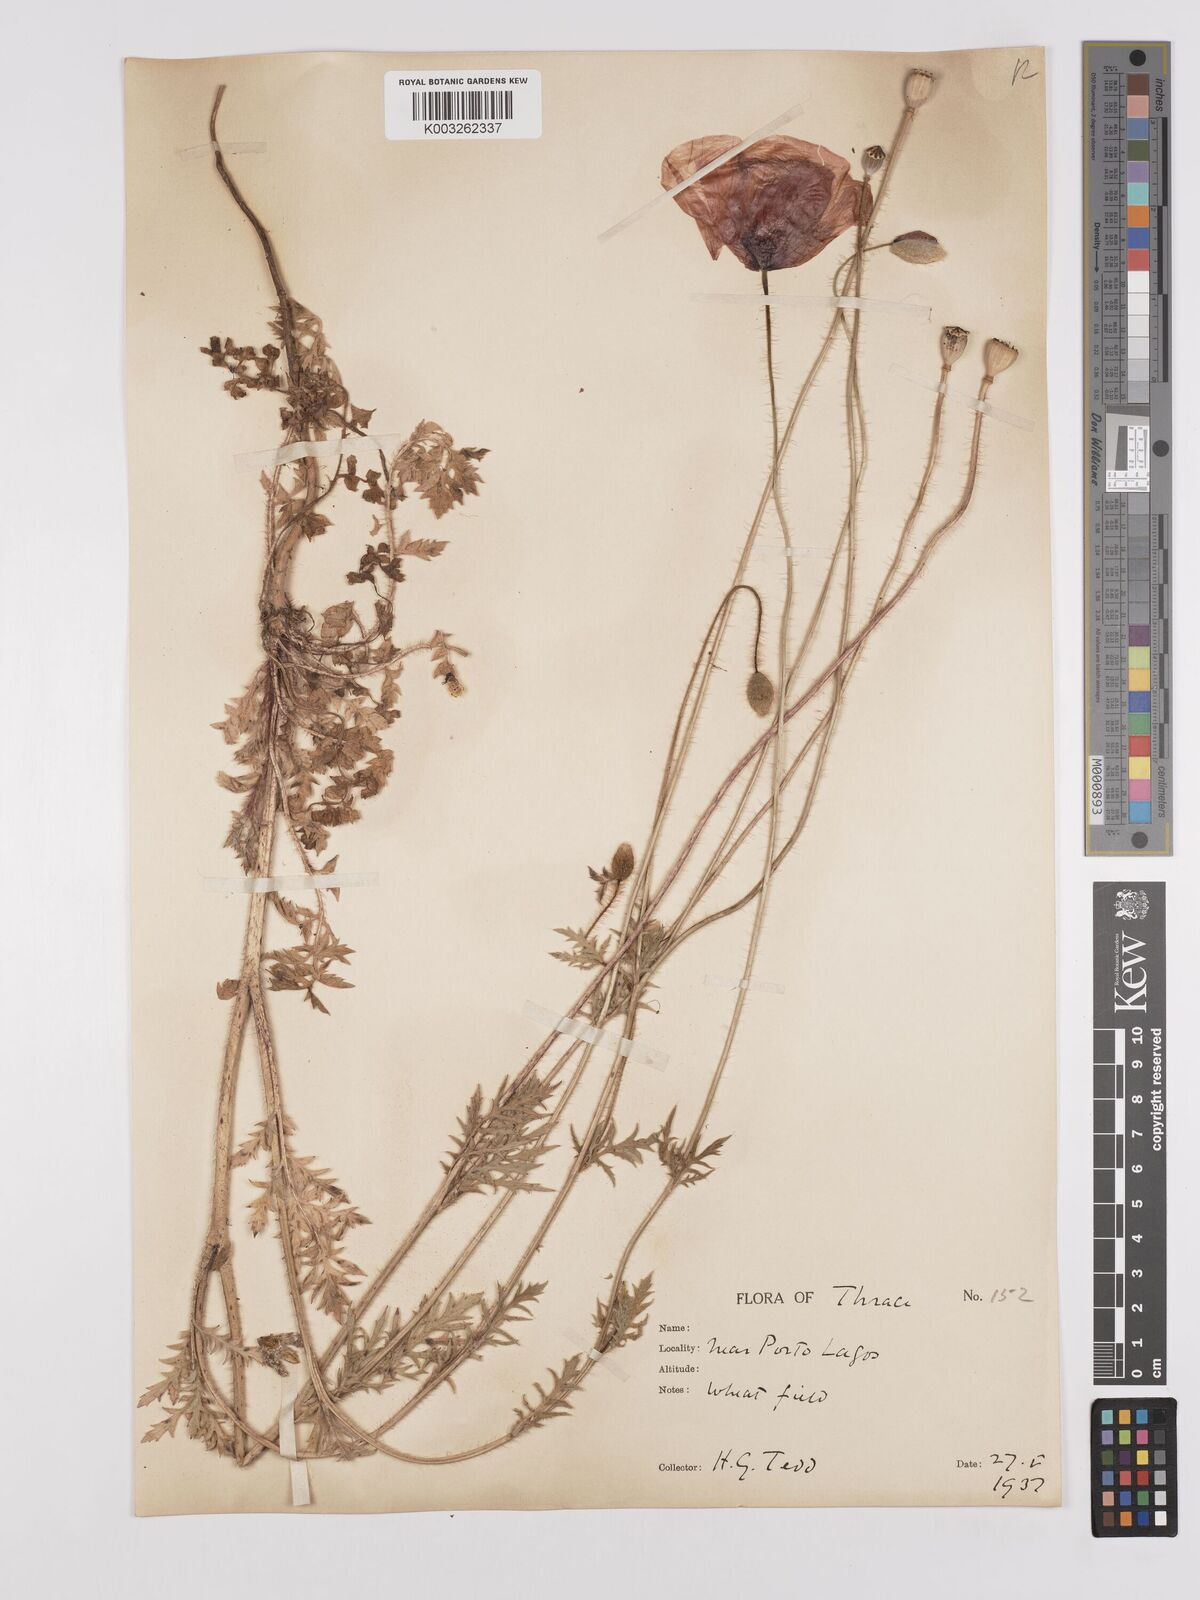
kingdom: Plantae
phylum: Tracheophyta
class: Magnoliopsida
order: Ranunculales
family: Papaveraceae
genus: Papaver
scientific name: Papaver rhoeas
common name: Corn poppy
